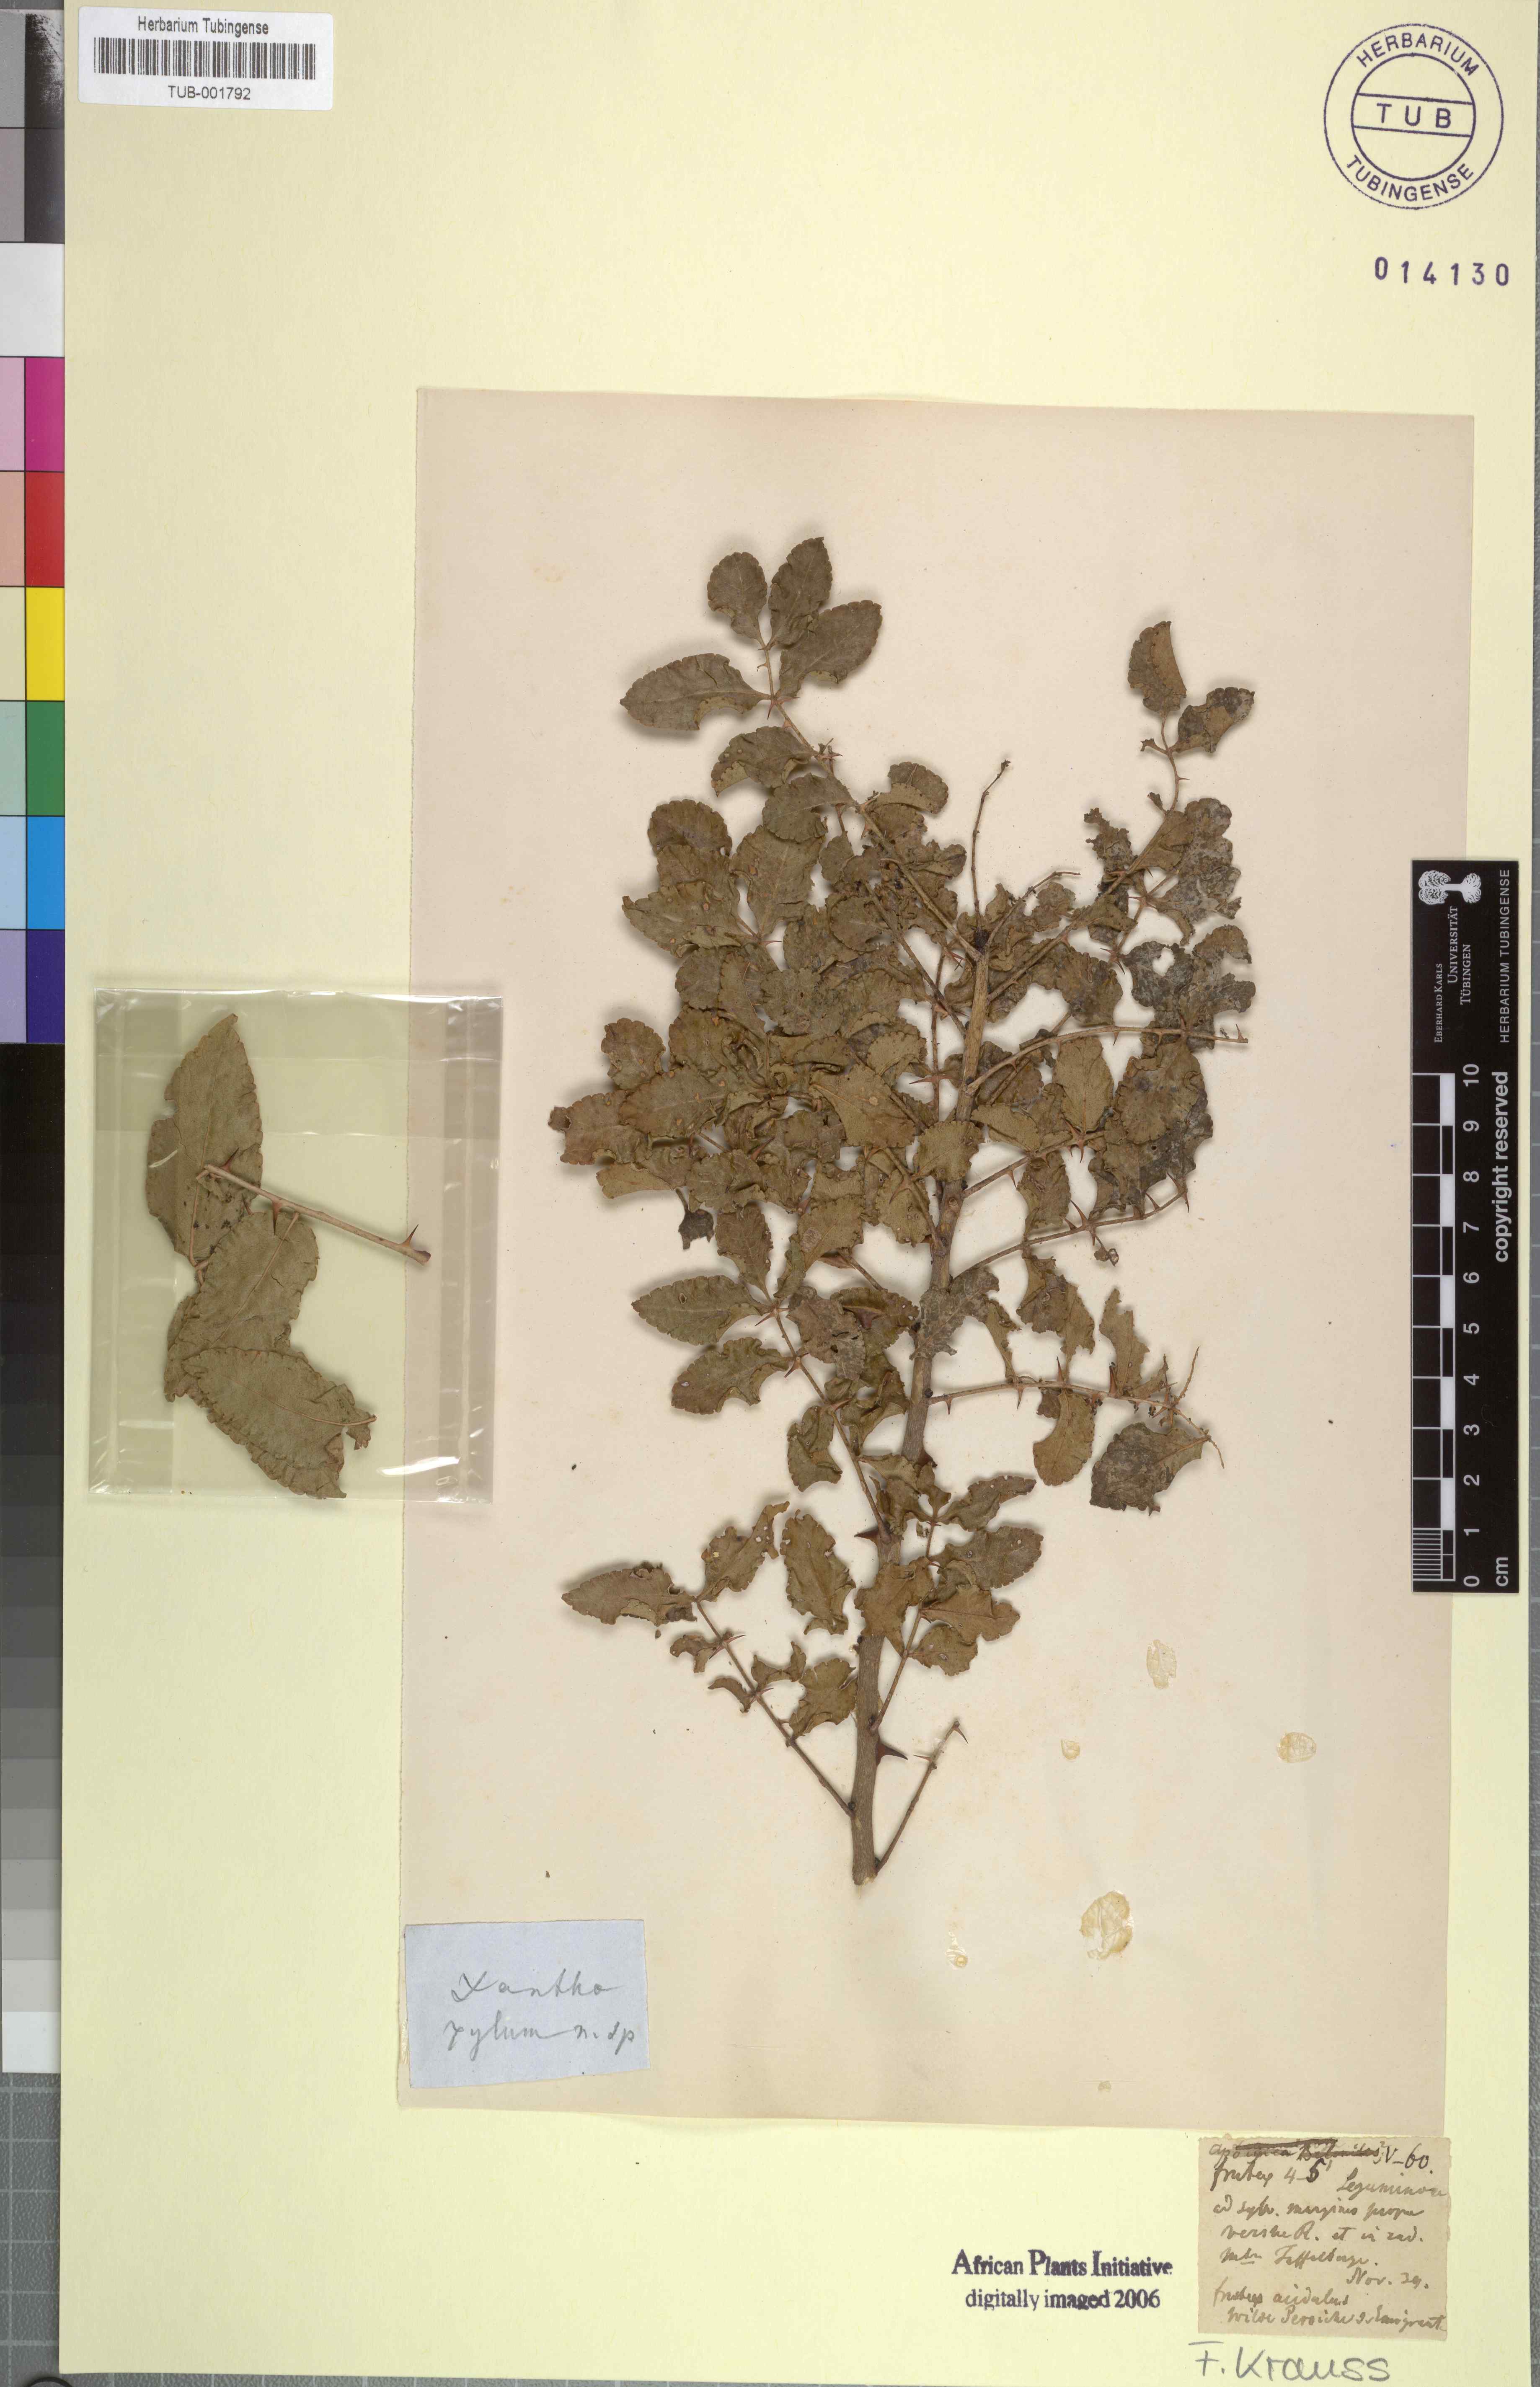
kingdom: Plantae
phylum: Tracheophyta
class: Magnoliopsida
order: Sapindales
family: Rutaceae
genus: Vepris
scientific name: Vepris natalensis
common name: Slender cherry-orange
